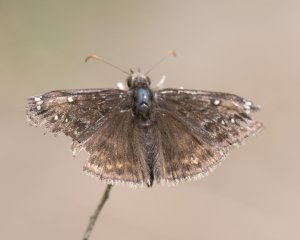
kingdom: Animalia
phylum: Arthropoda
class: Insecta
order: Lepidoptera
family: Hesperiidae
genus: Gesta
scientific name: Gesta
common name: Juvenal's Duskywing
